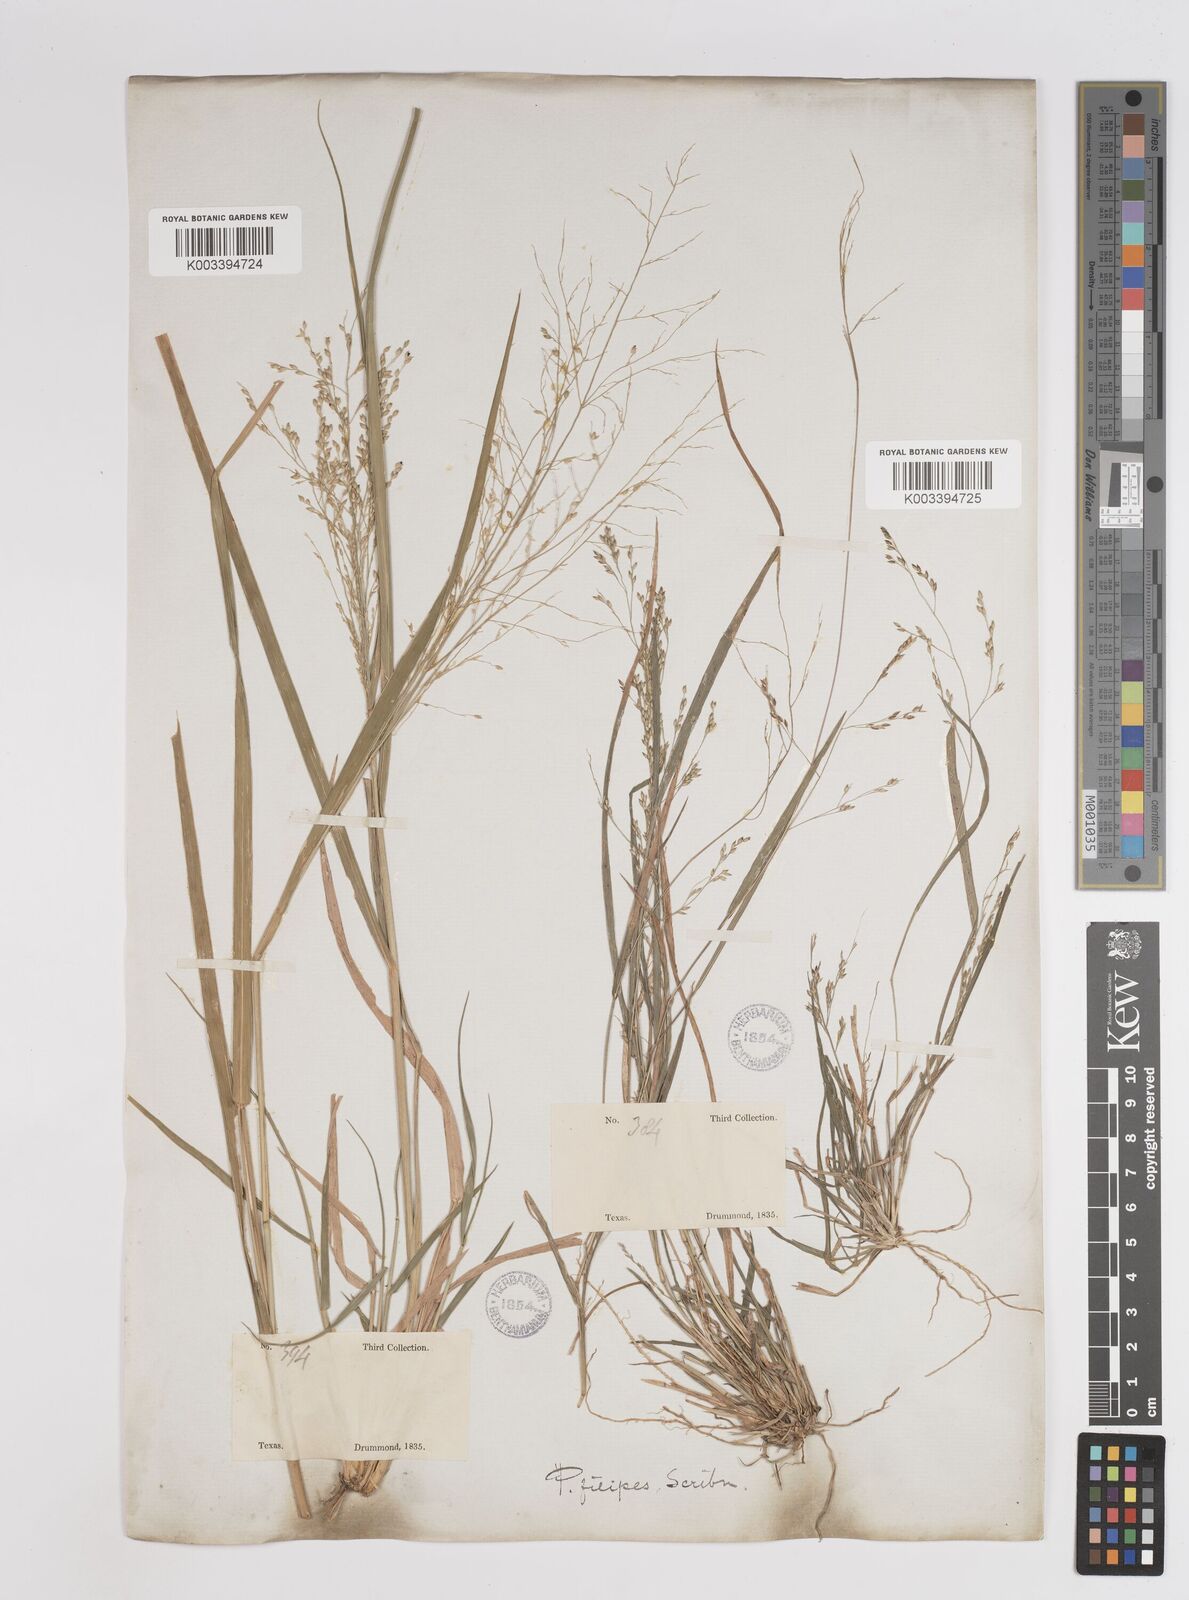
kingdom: Plantae
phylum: Tracheophyta
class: Liliopsida
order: Poales
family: Poaceae
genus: Panicum
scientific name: Panicum hallii
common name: Hall's witchgrass
